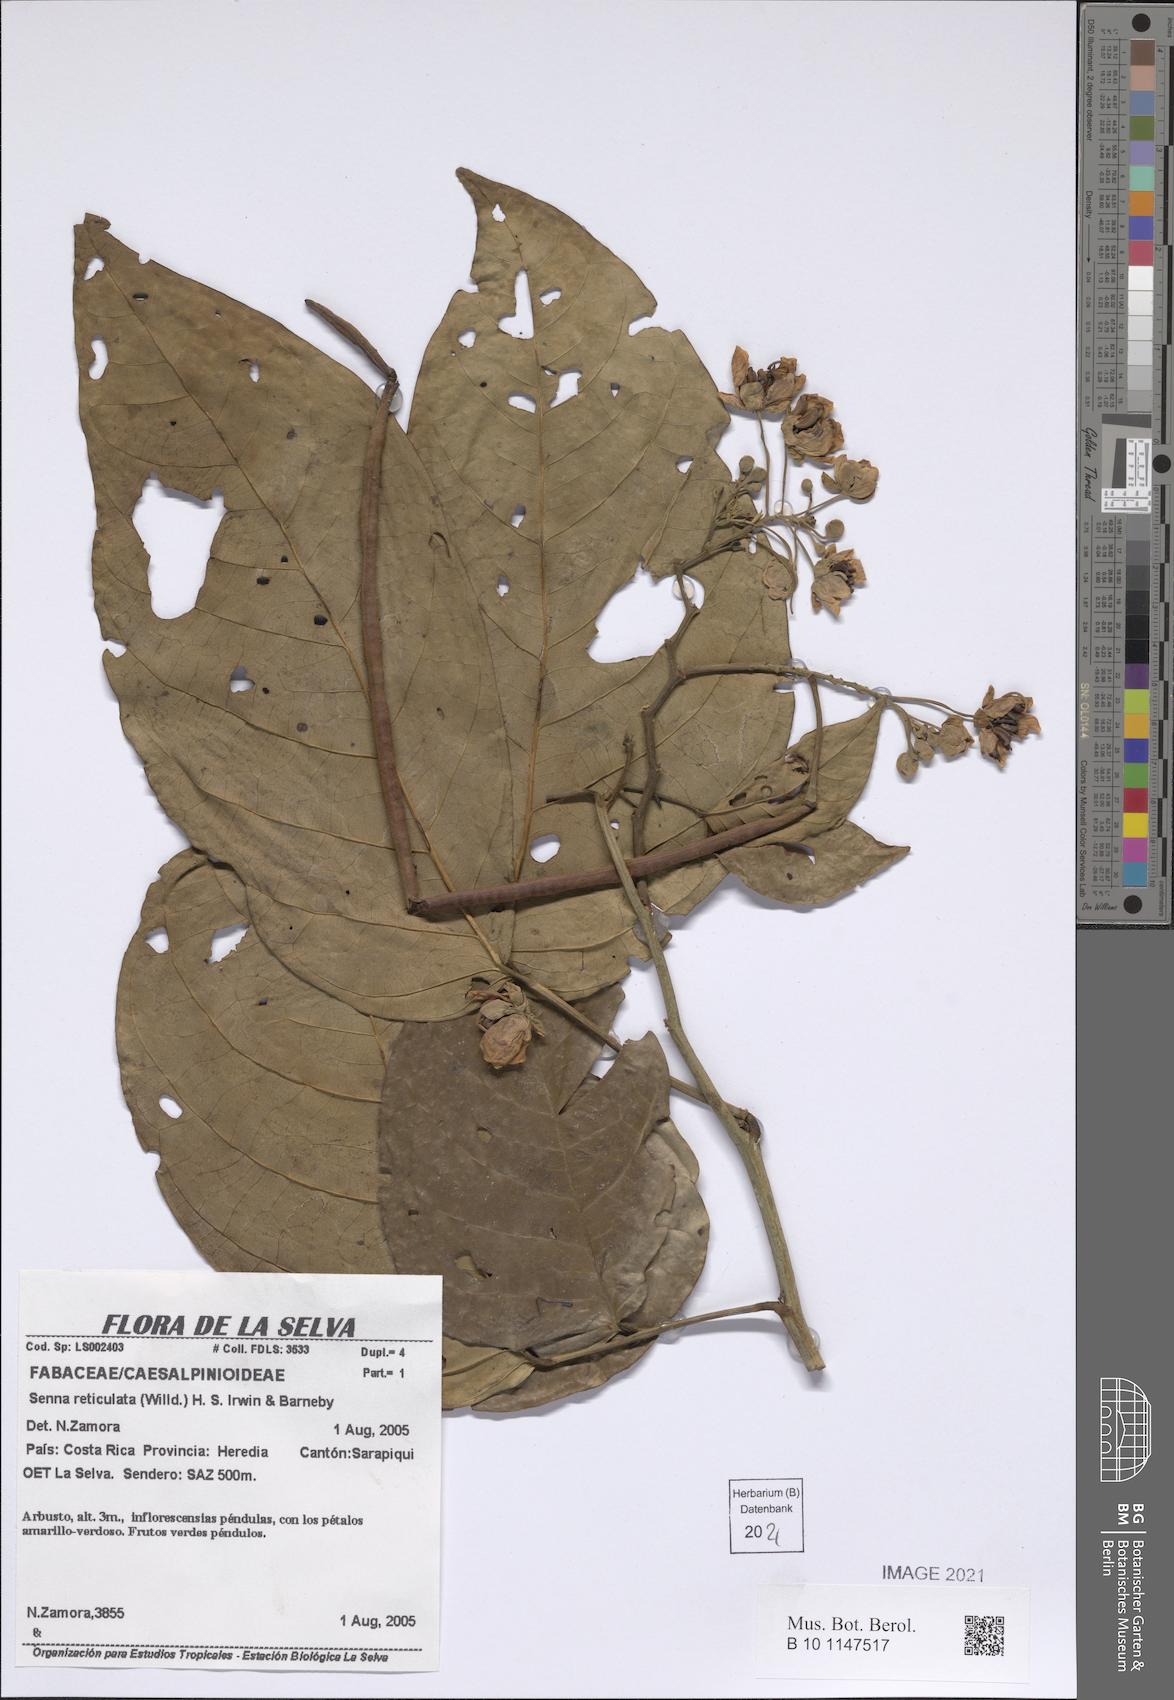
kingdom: Plantae
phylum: Tracheophyta
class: Magnoliopsida
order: Fabales
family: Fabaceae
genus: Senna
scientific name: Senna reticulata
